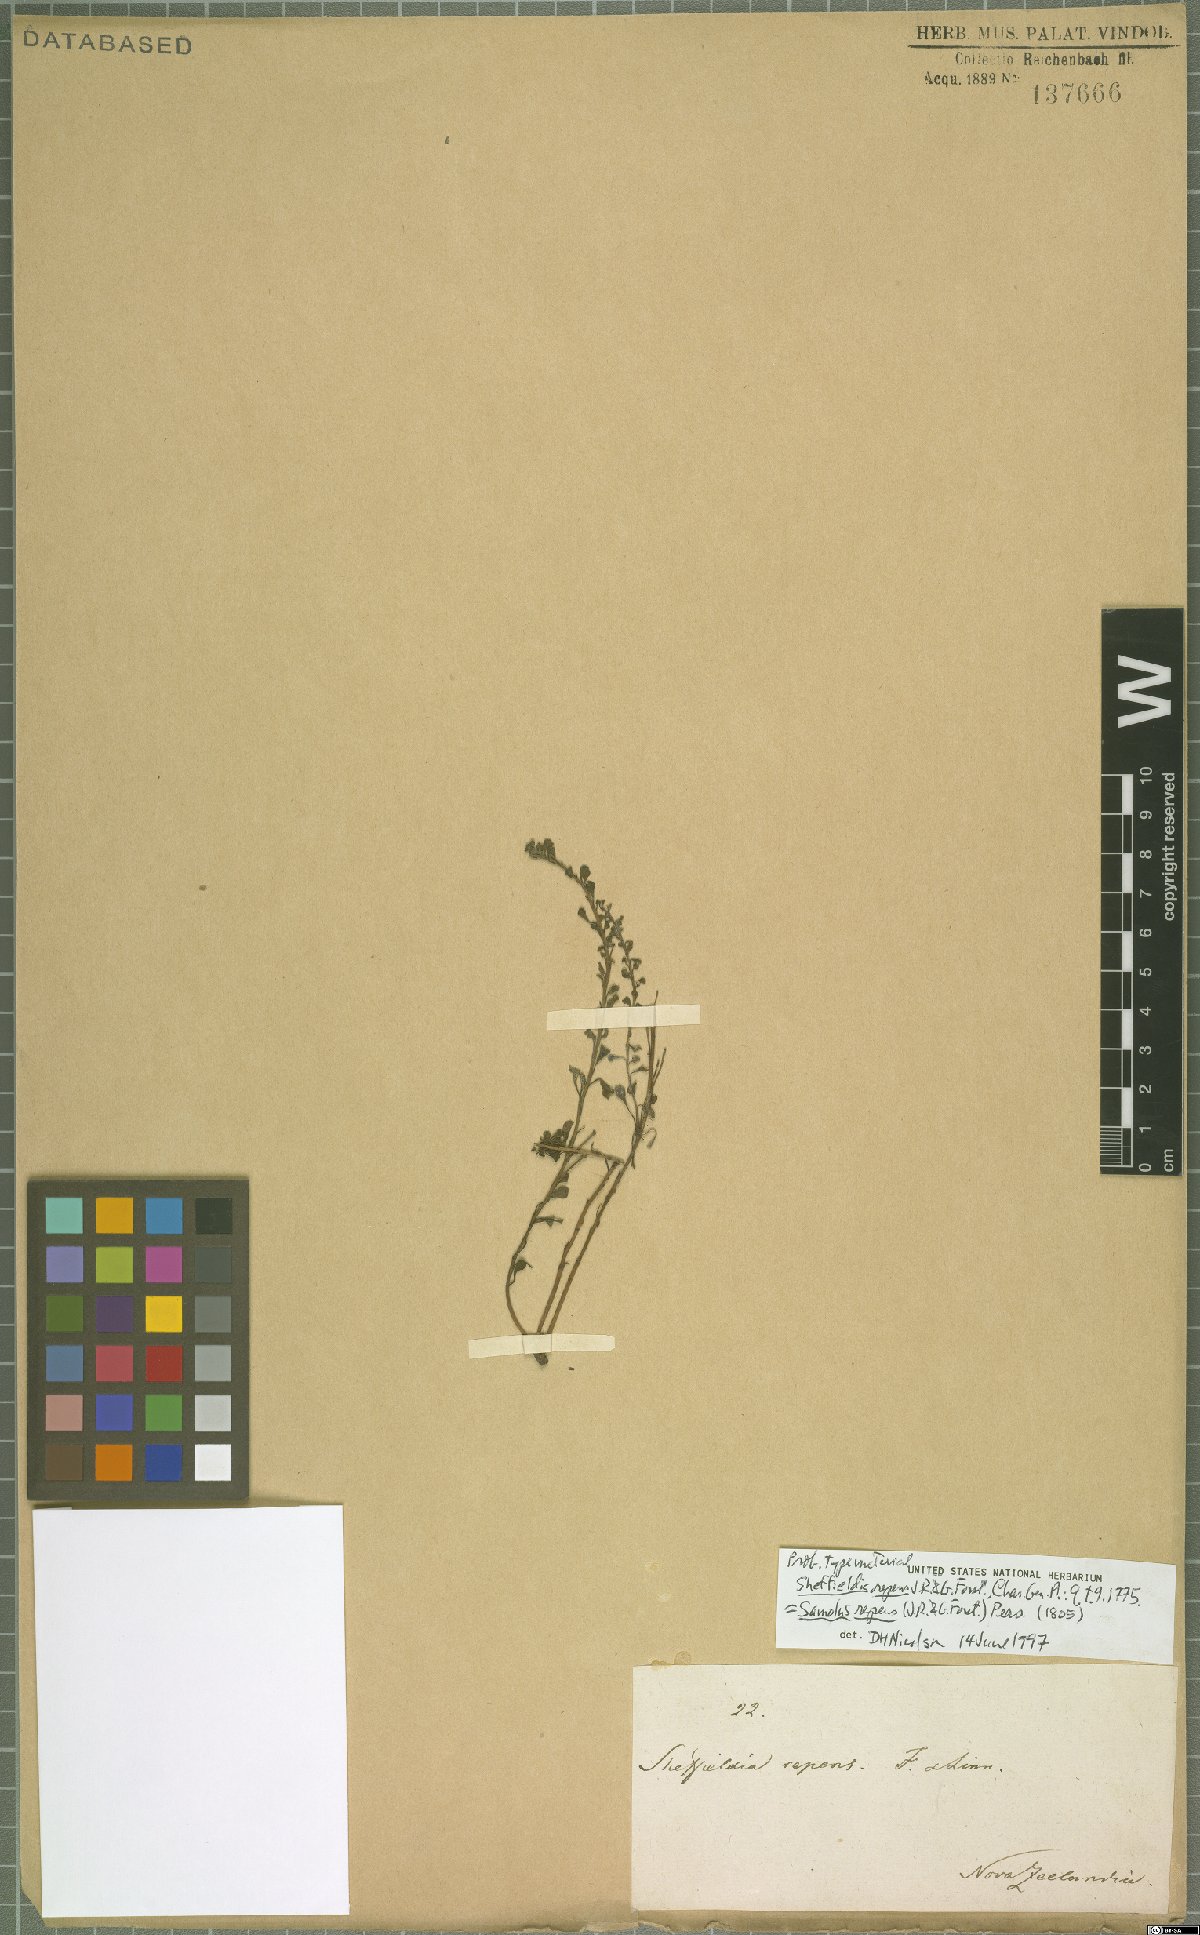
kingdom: Plantae
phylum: Tracheophyta
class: Magnoliopsida
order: Ericales
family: Primulaceae
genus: Samolus
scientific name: Samolus repens
